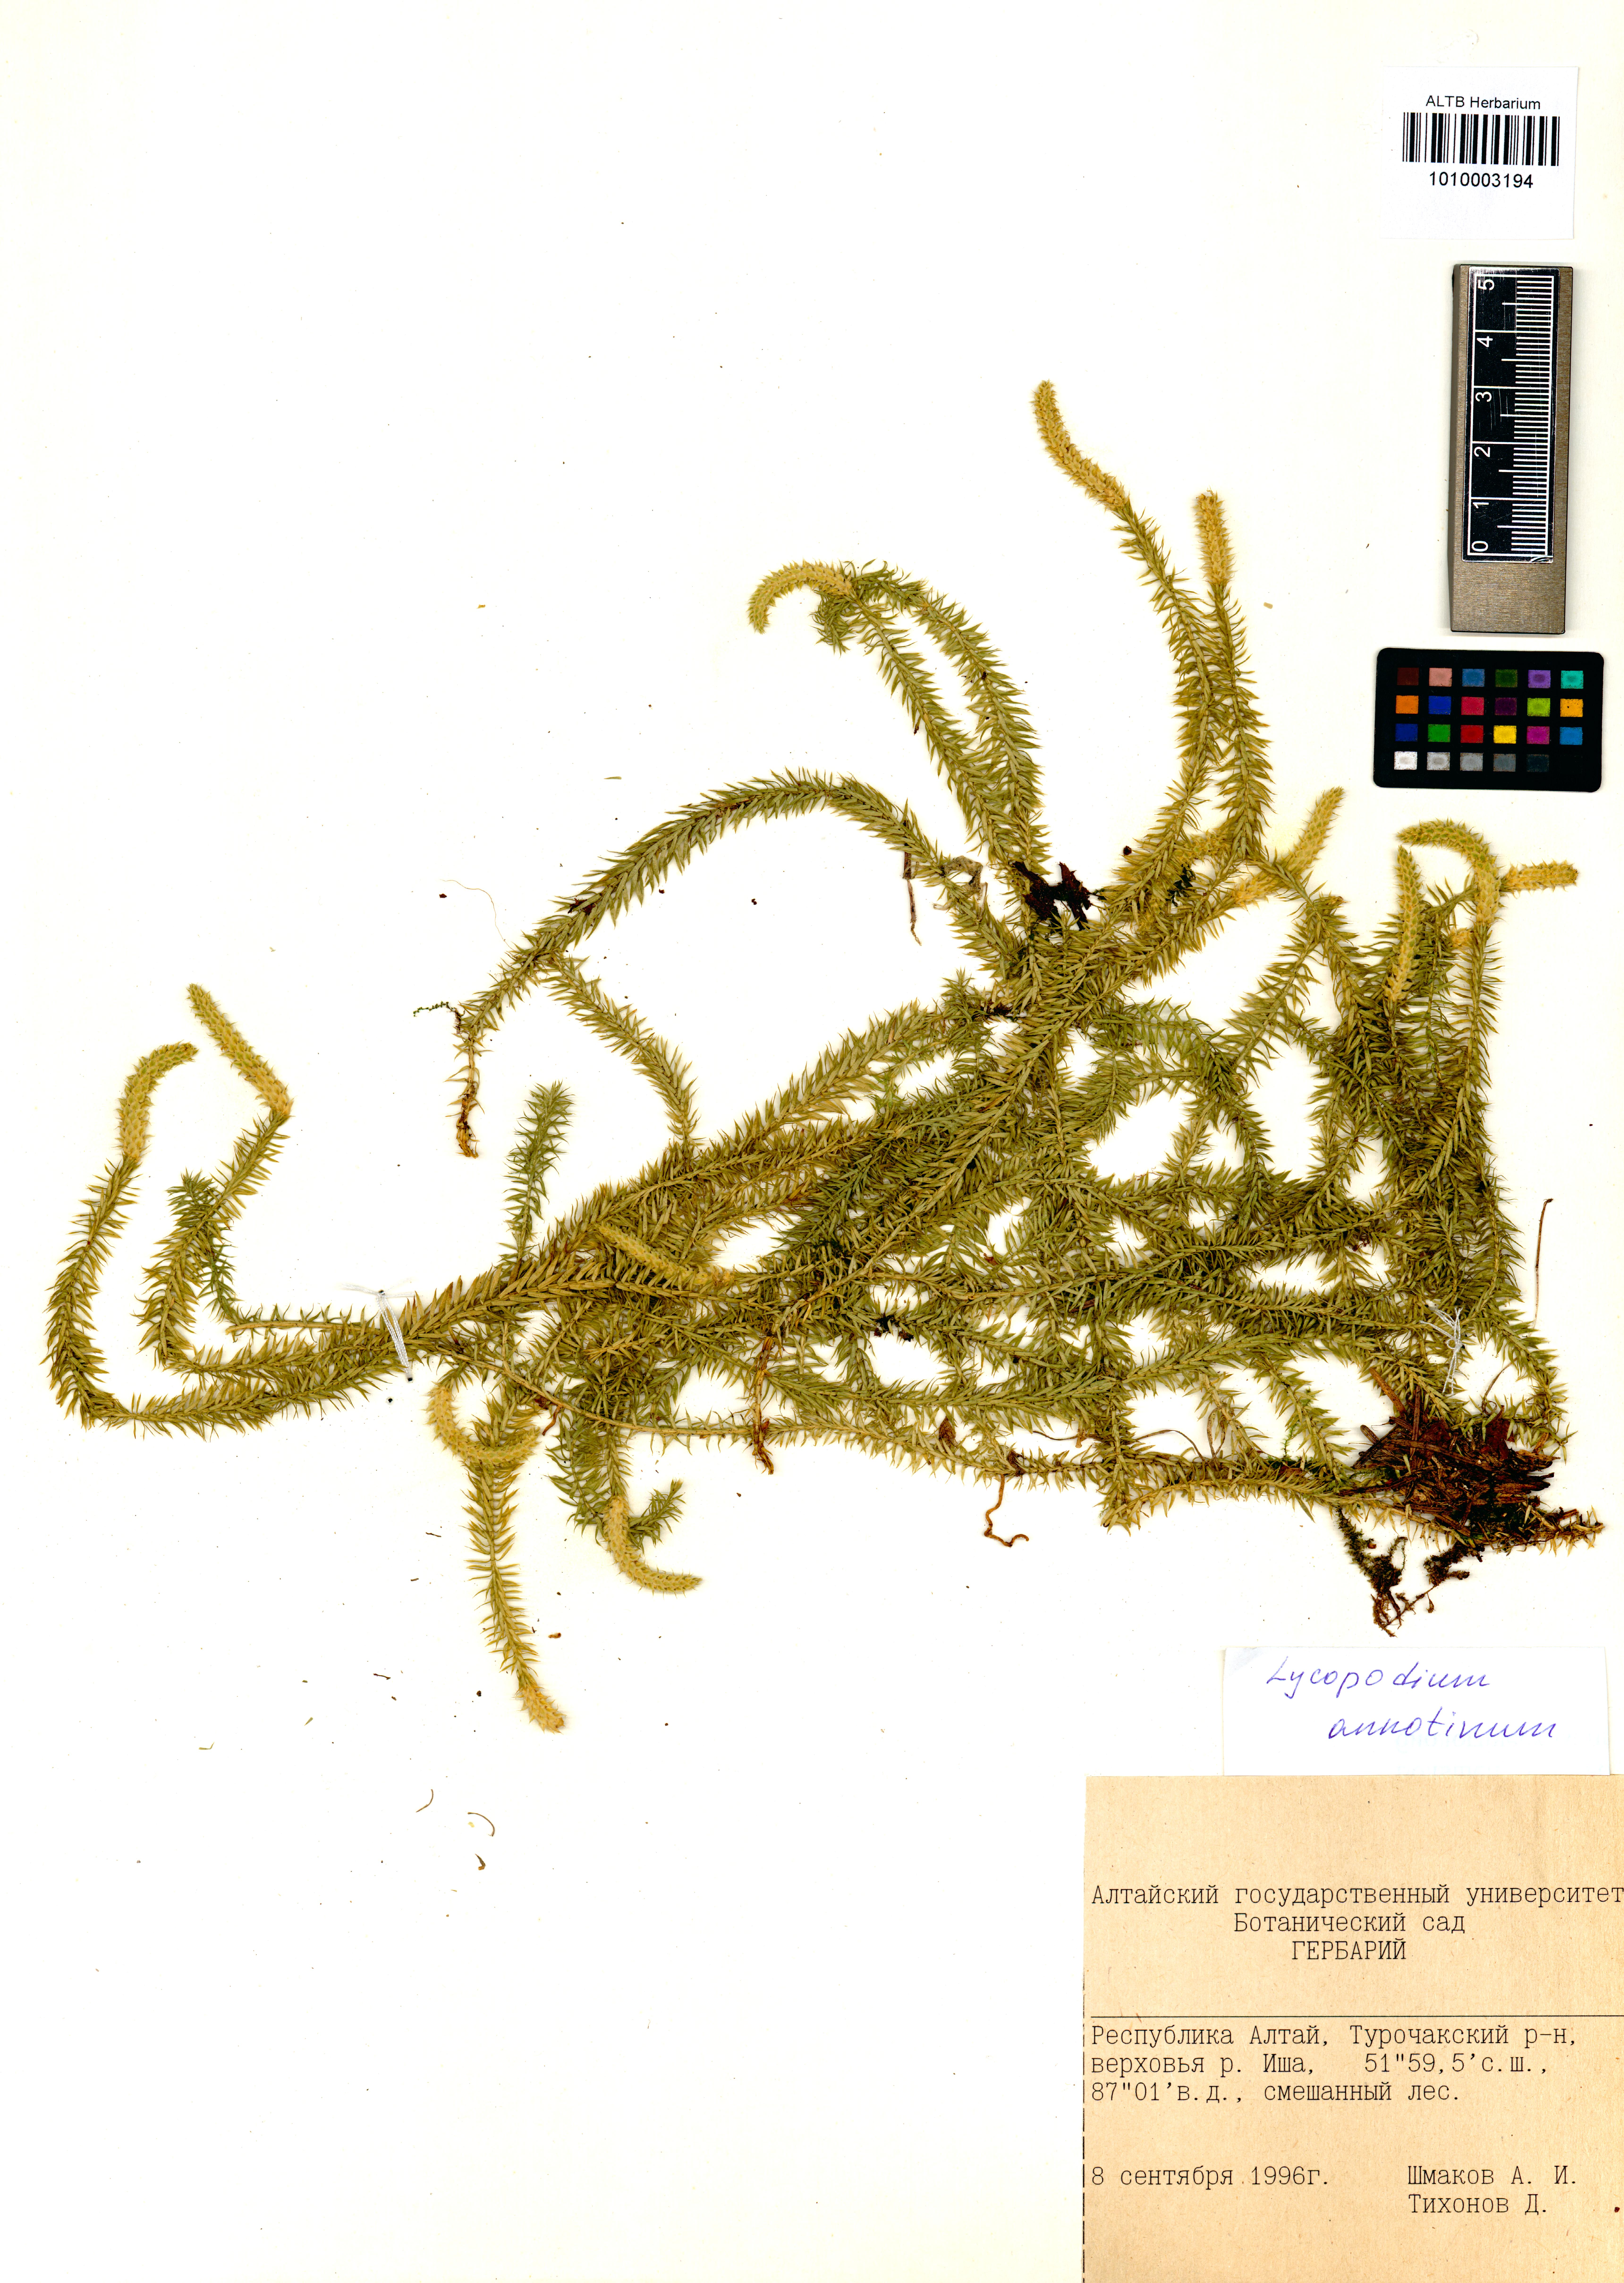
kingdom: Plantae
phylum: Tracheophyta
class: Lycopodiopsida
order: Lycopodiales
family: Lycopodiaceae
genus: Spinulum
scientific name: Spinulum annotinum
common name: Interrupted club-moss
